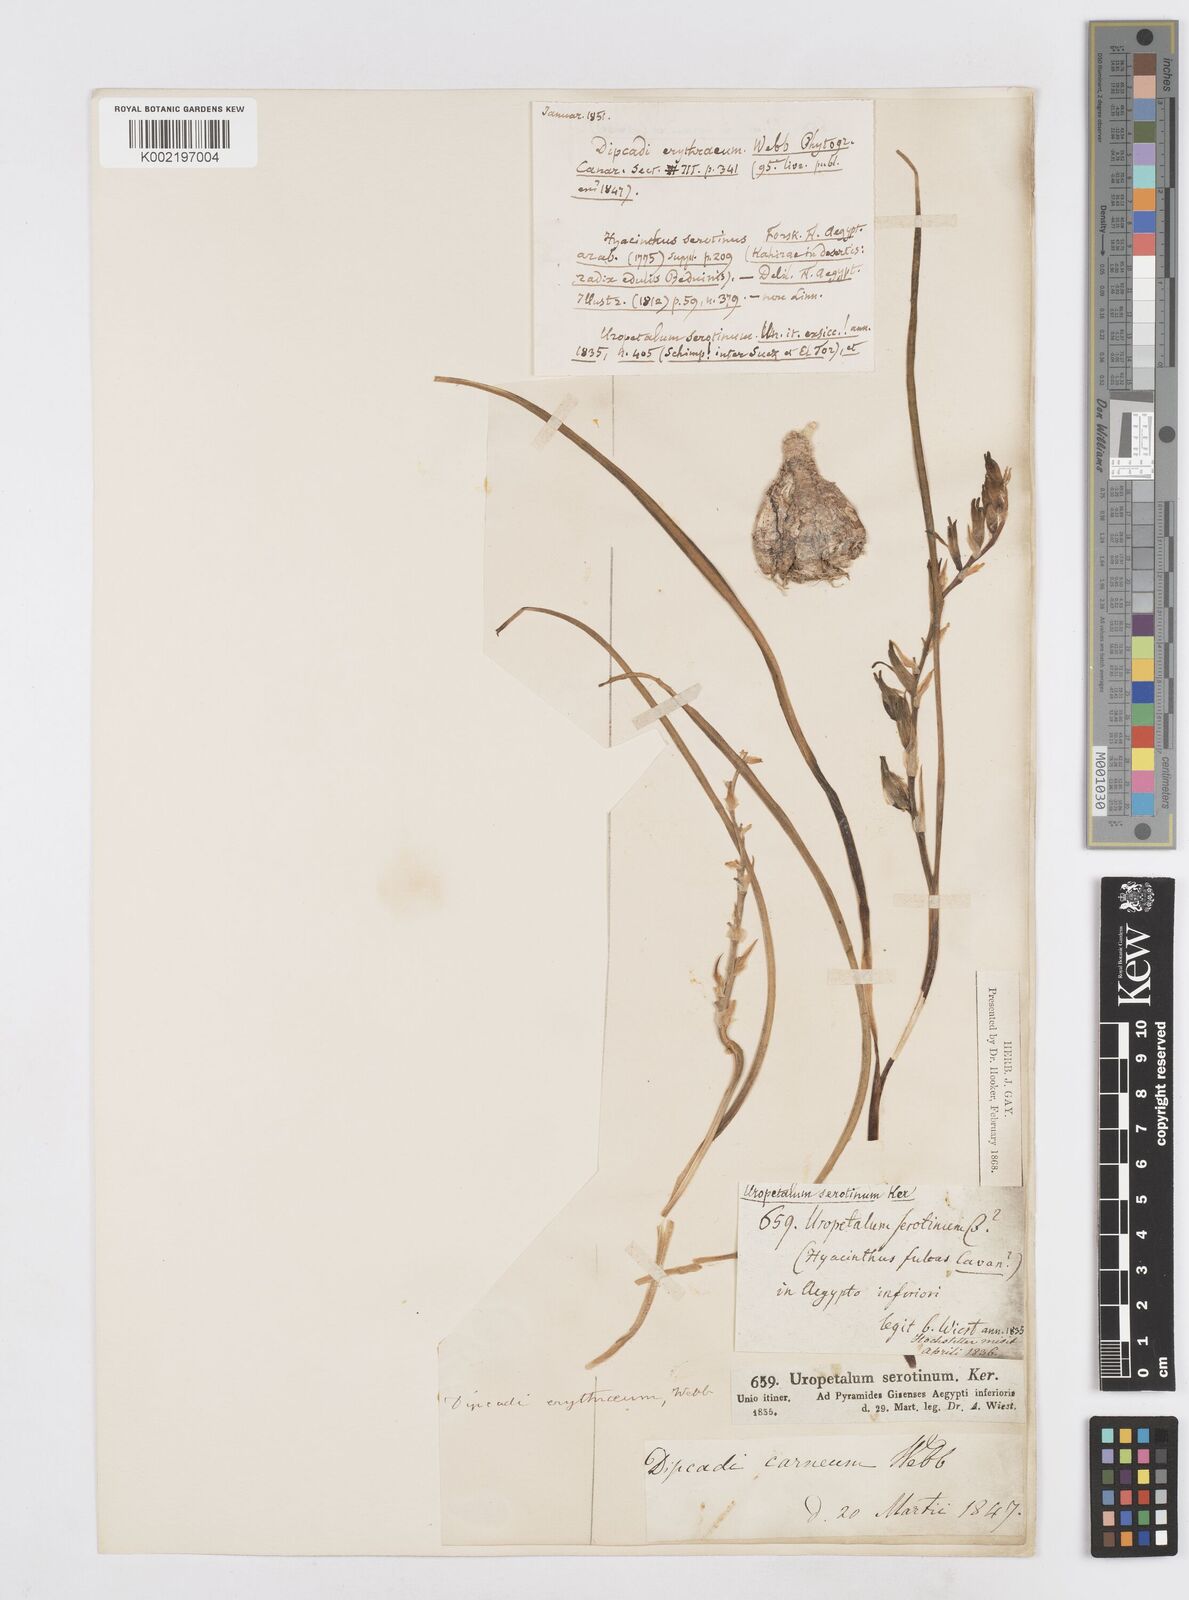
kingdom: Plantae
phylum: Tracheophyta
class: Liliopsida
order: Asparagales
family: Asparagaceae
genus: Dipcadi
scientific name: Dipcadi erythraeum
